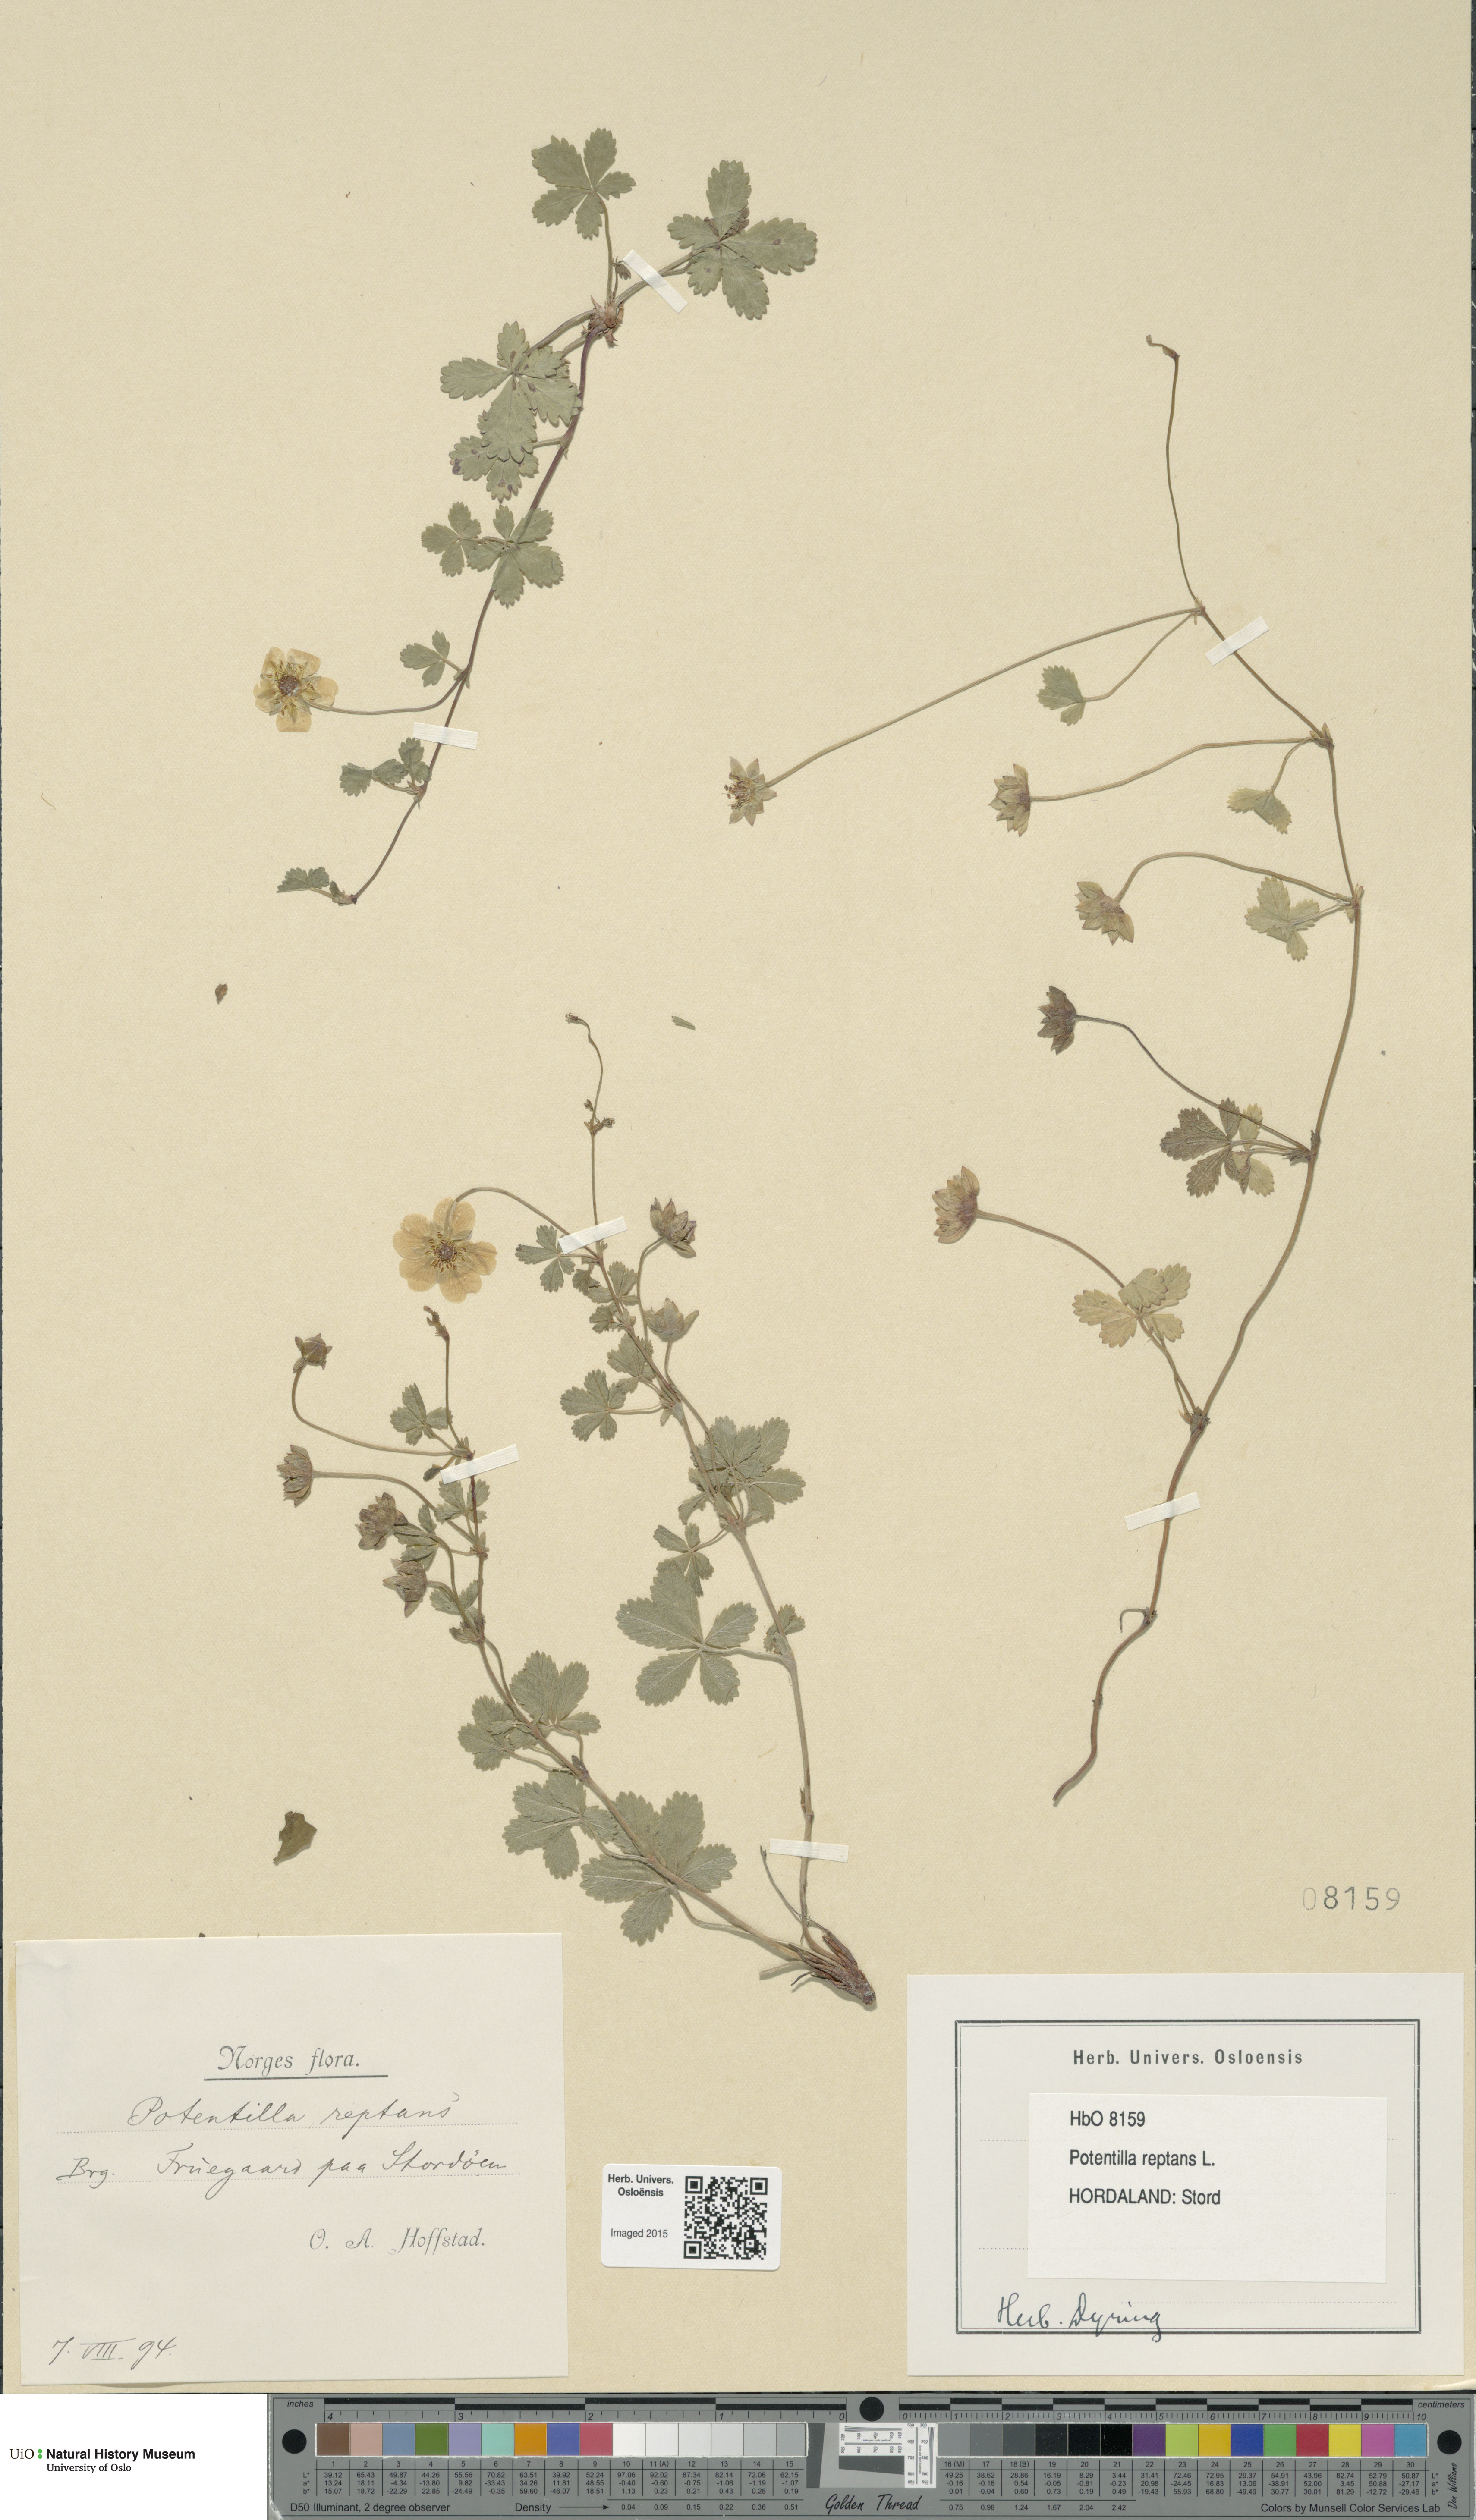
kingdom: Plantae
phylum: Tracheophyta
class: Magnoliopsida
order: Rosales
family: Rosaceae
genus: Potentilla
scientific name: Potentilla reptans
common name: Creeping cinquefoil
